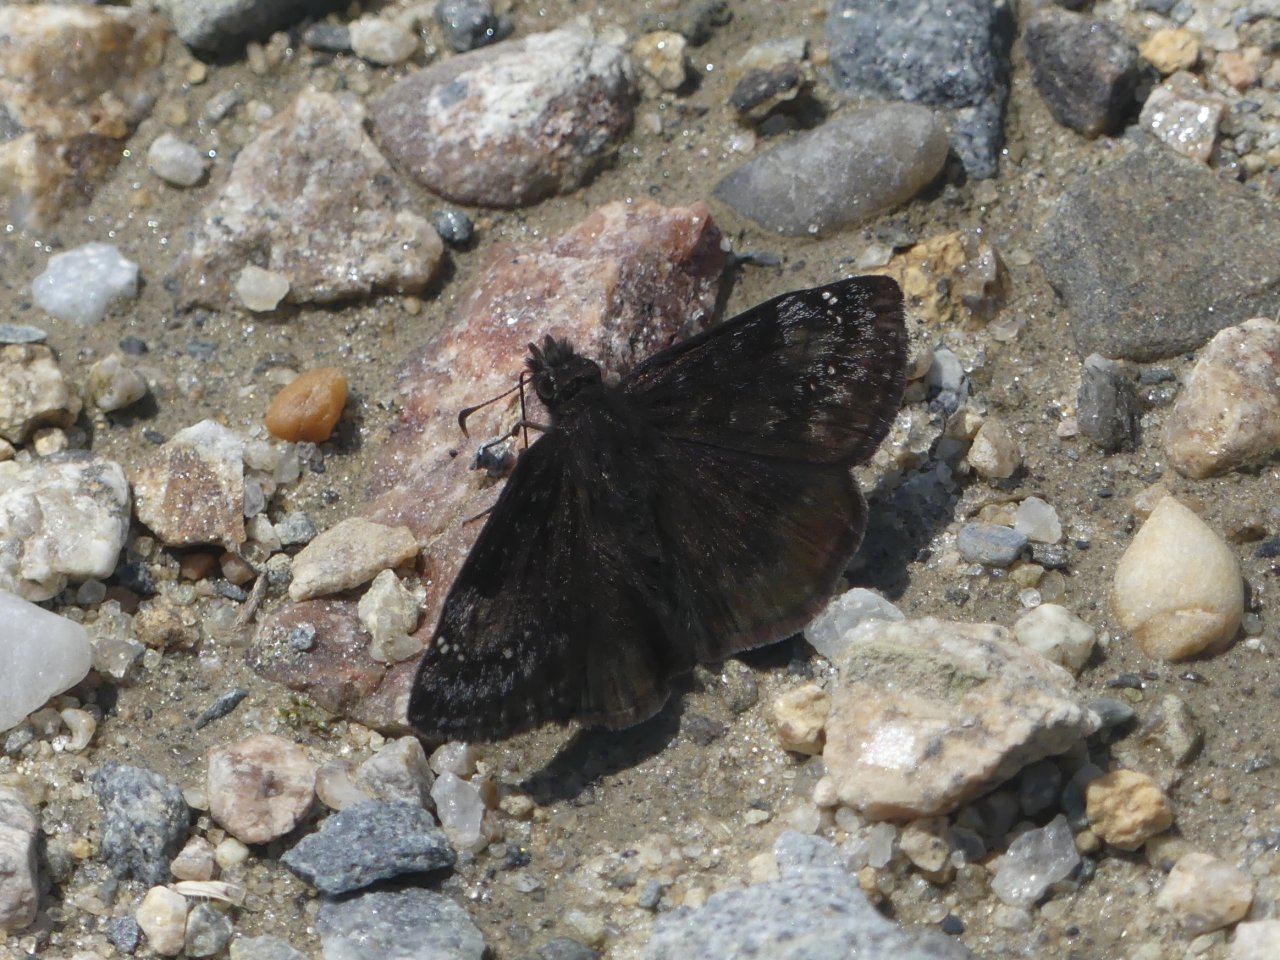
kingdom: Animalia
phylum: Arthropoda
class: Insecta
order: Lepidoptera
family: Hesperiidae
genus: Gesta
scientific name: Gesta
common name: Wild Indigo Duskywing
